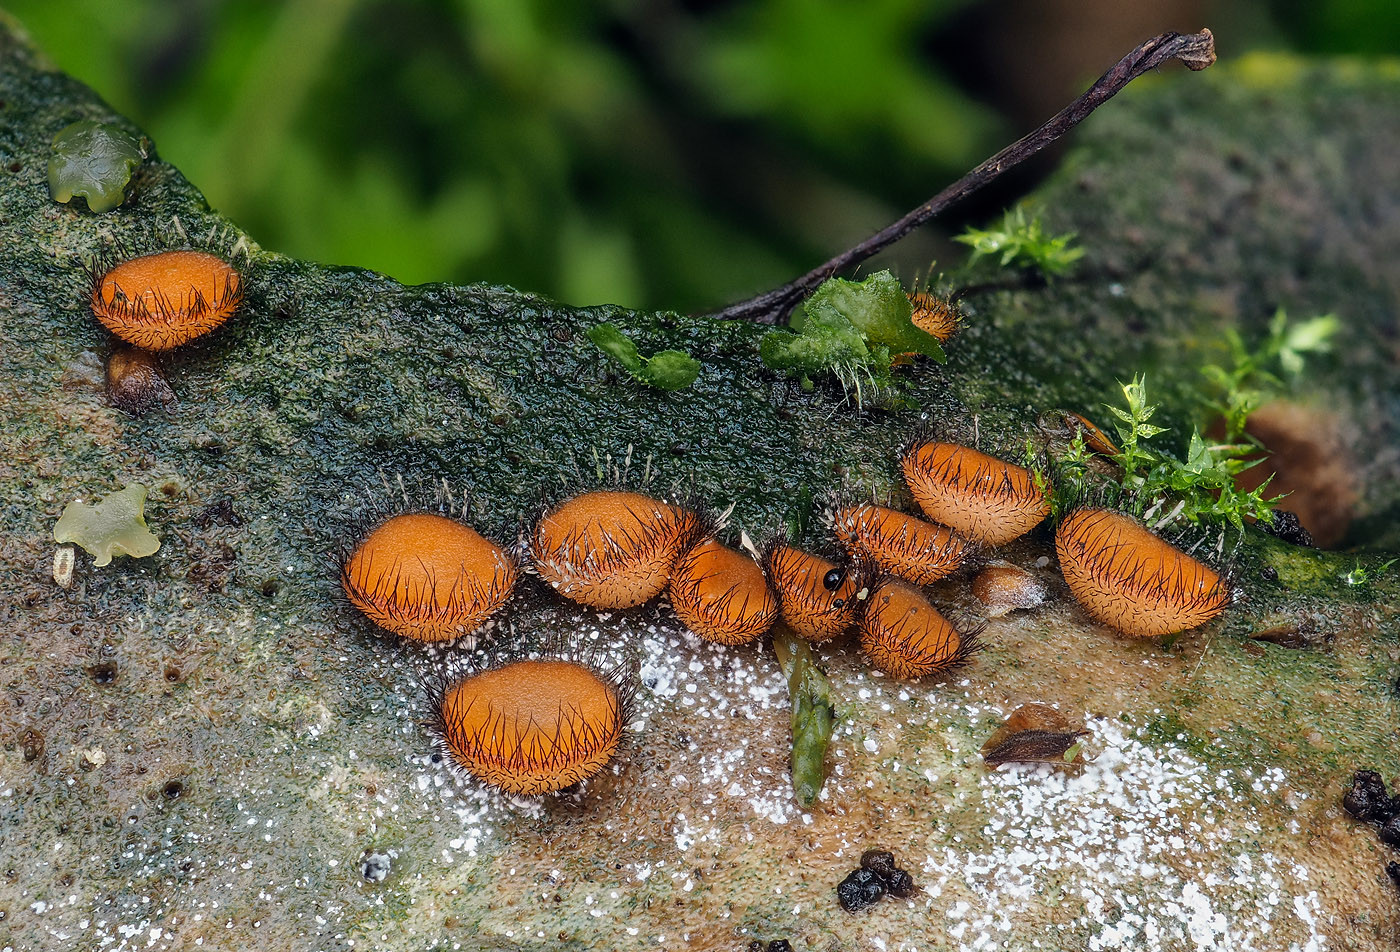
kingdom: Fungi
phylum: Ascomycota
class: Pezizomycetes
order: Pezizales
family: Pyronemataceae
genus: Scutellinia
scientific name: Scutellinia scutellata
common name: frynset skjoldbæger
